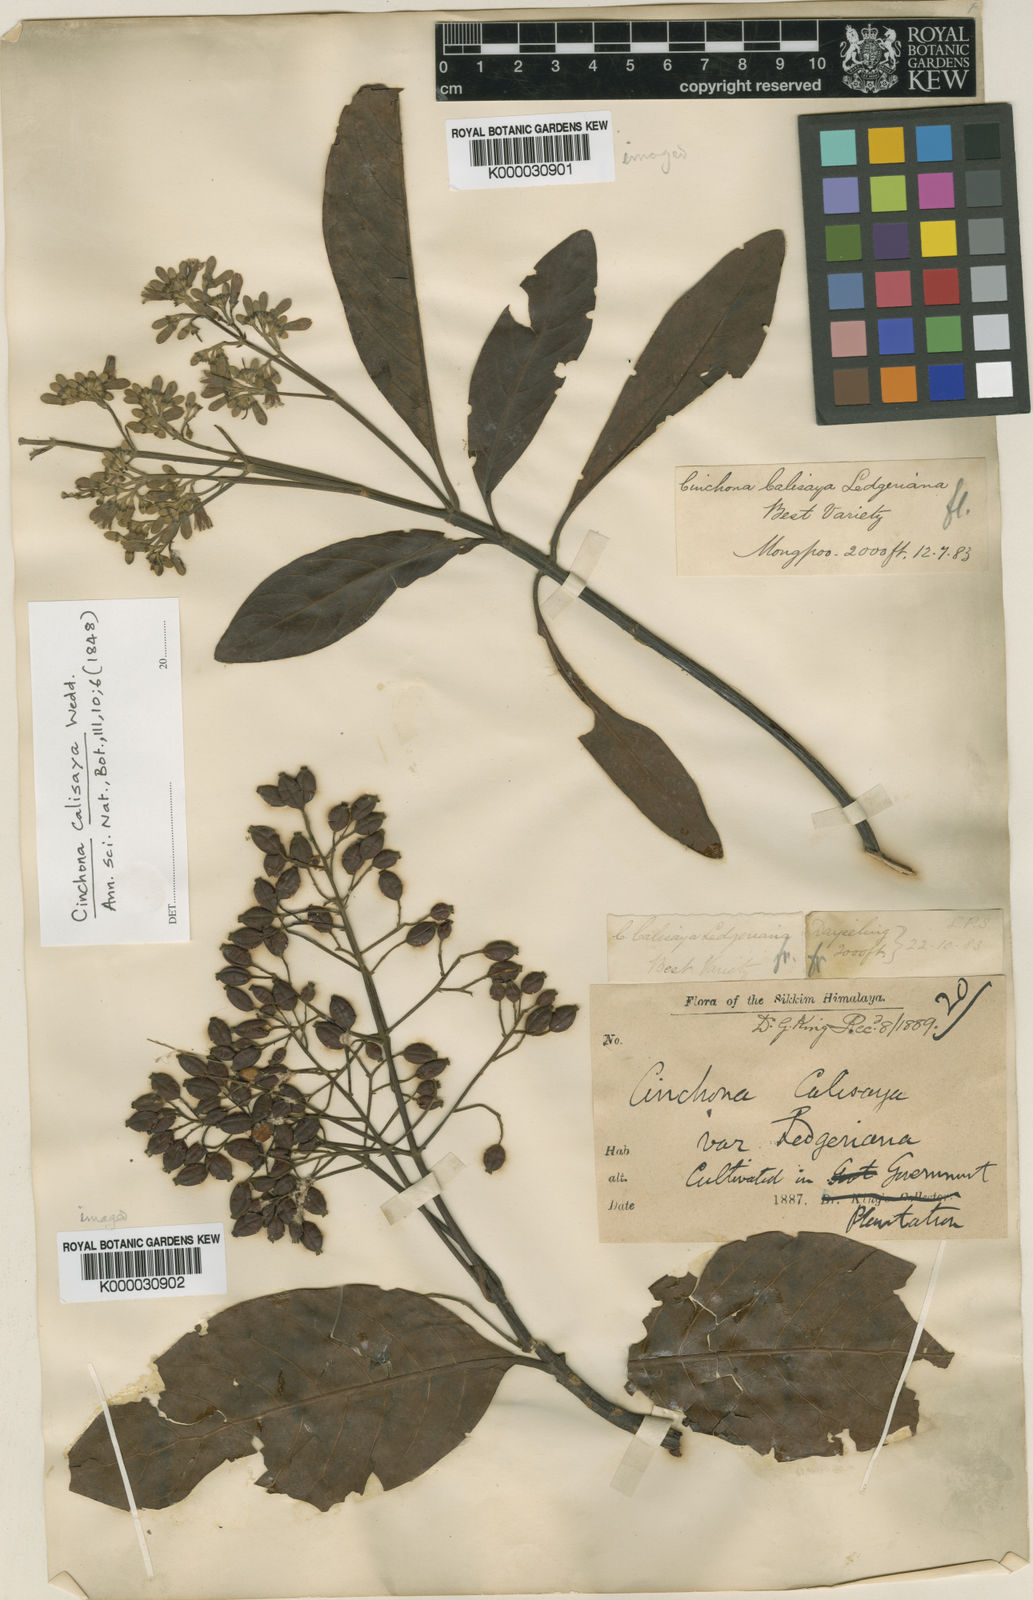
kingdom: Plantae
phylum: Tracheophyta
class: Magnoliopsida
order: Gentianales
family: Rubiaceae
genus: Cinchona
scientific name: Cinchona calisaya
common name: Ledgerbark
